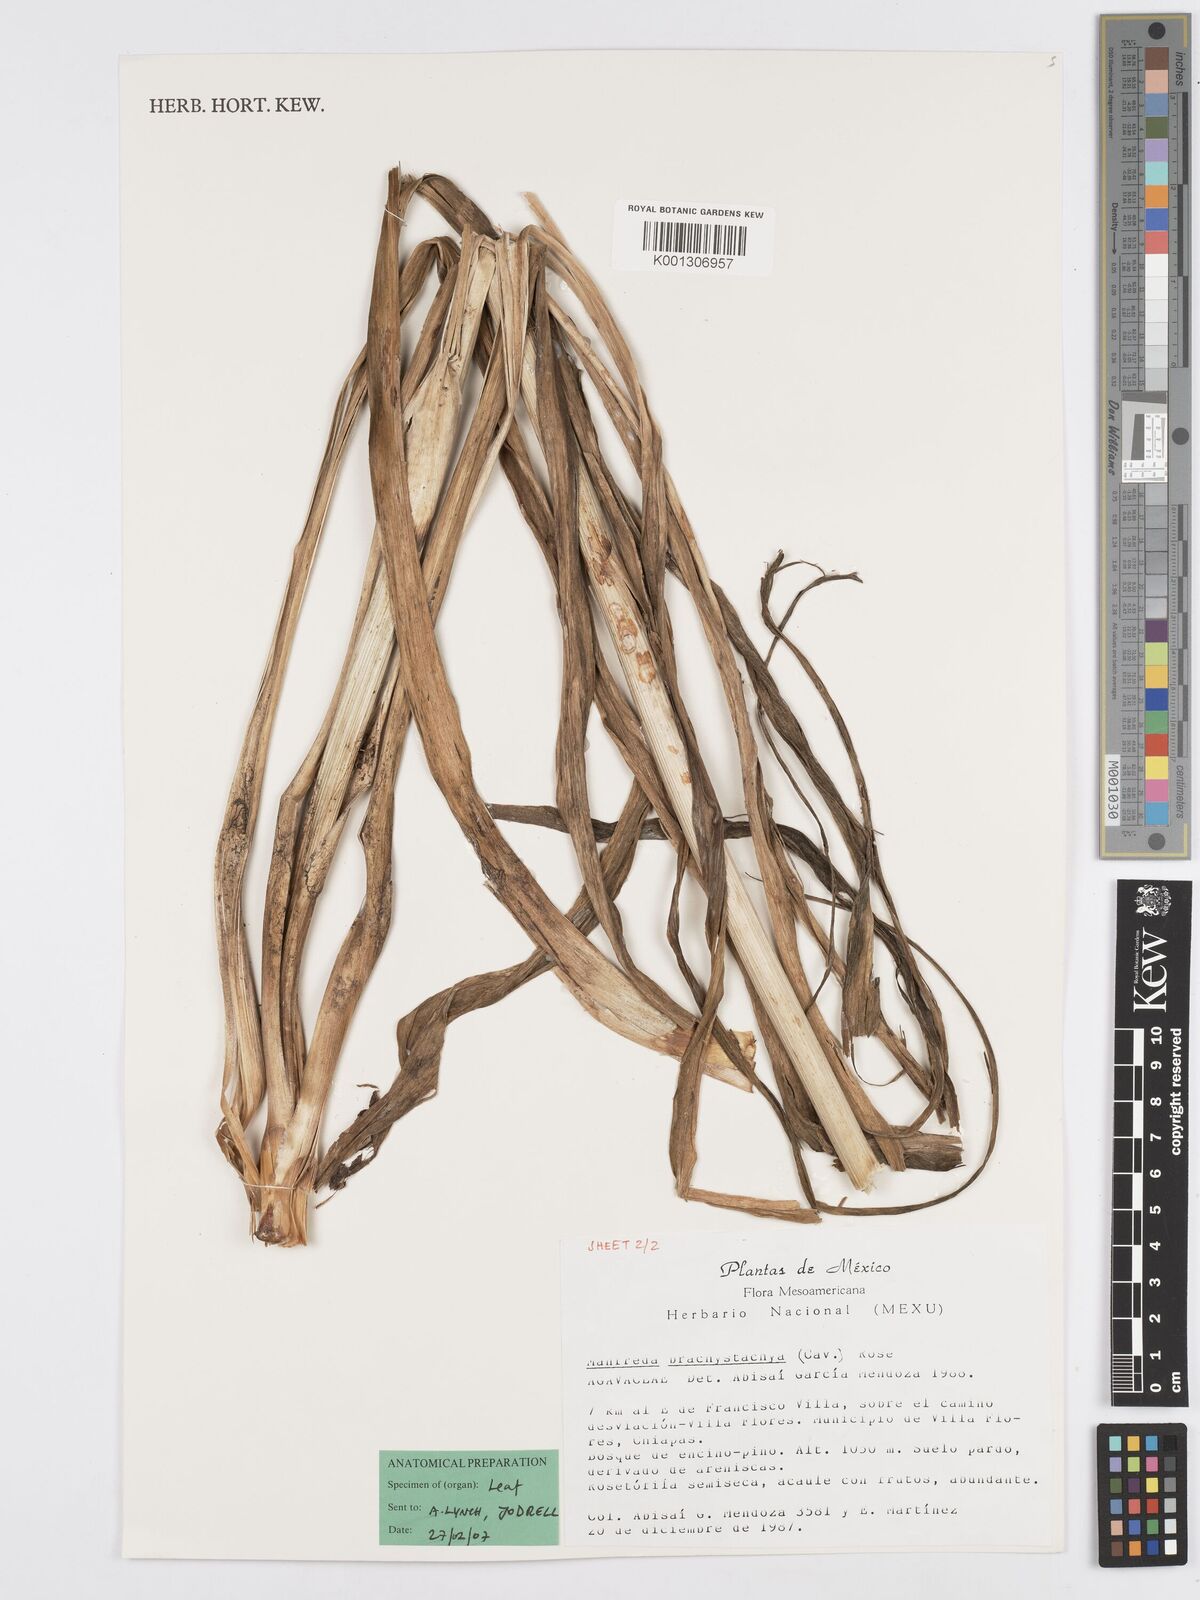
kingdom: Plantae
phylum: Tracheophyta
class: Liliopsida
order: Asparagales
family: Asparagaceae
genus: Agave
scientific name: Agave scabra
